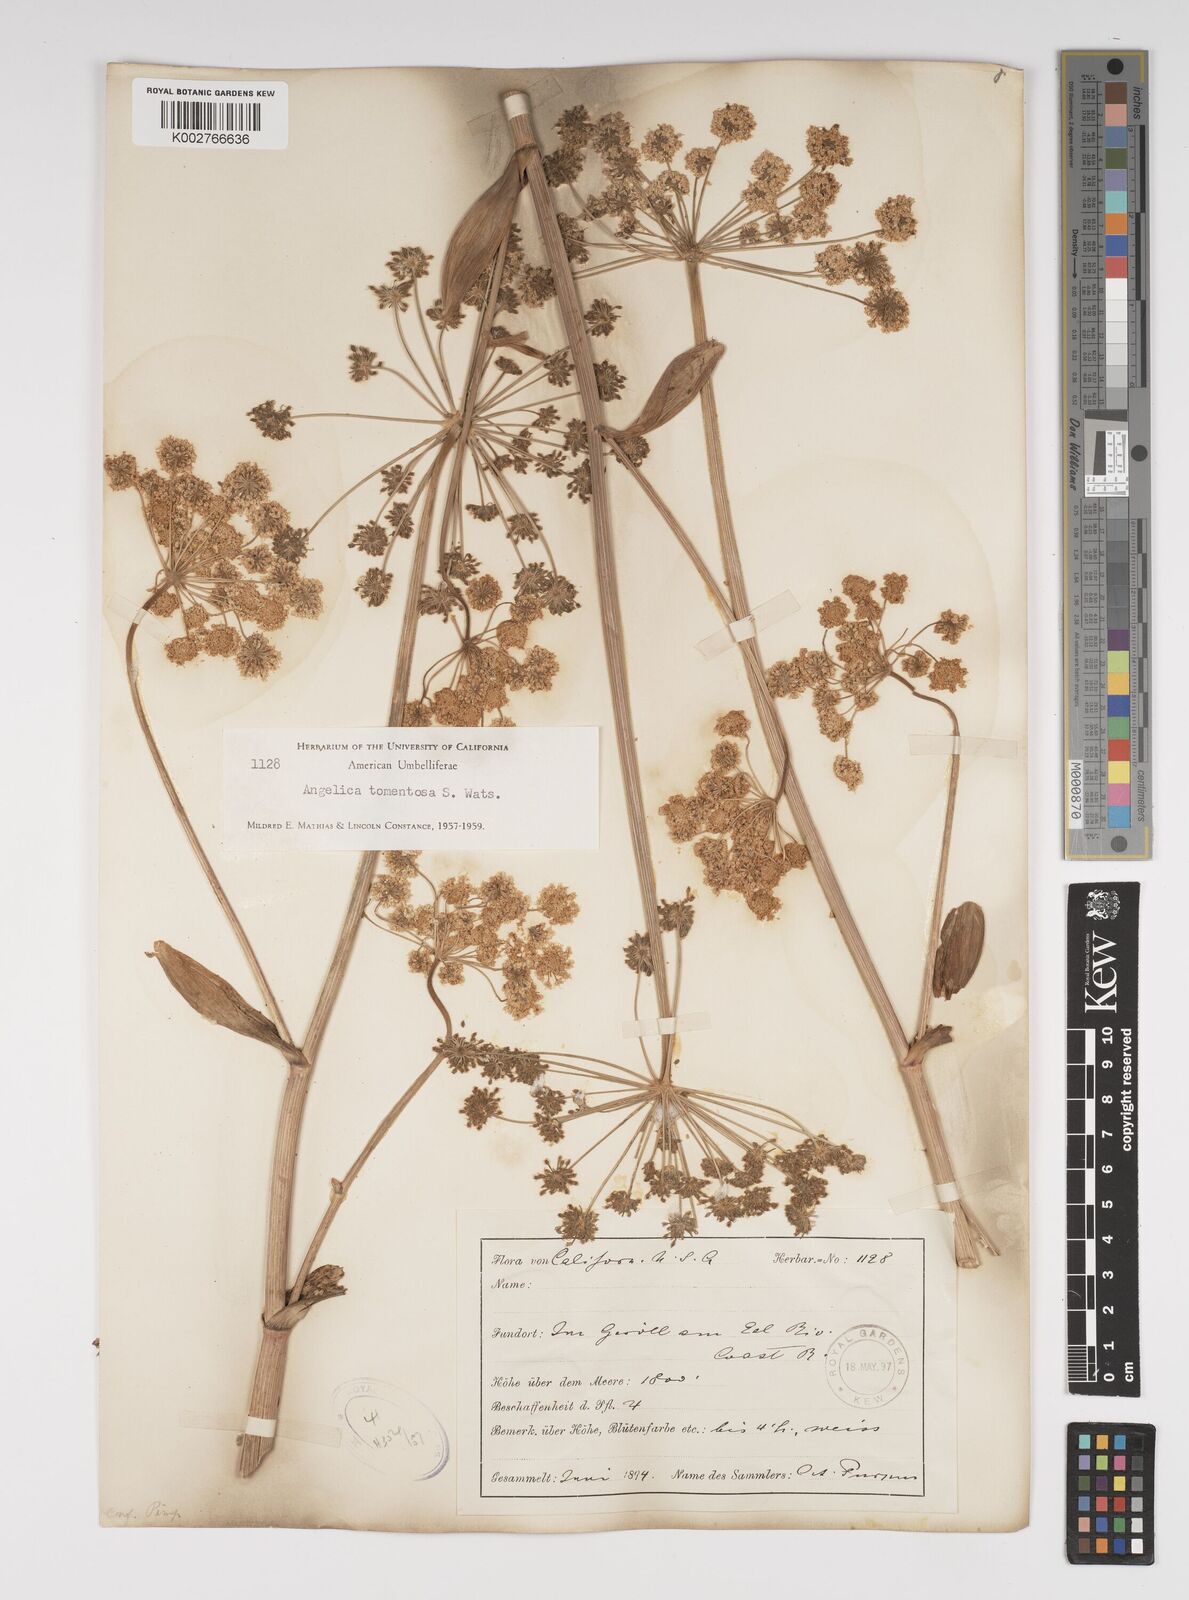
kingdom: Plantae
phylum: Tracheophyta
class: Magnoliopsida
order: Apiales
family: Apiaceae
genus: Angelica
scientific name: Angelica tomentosa
